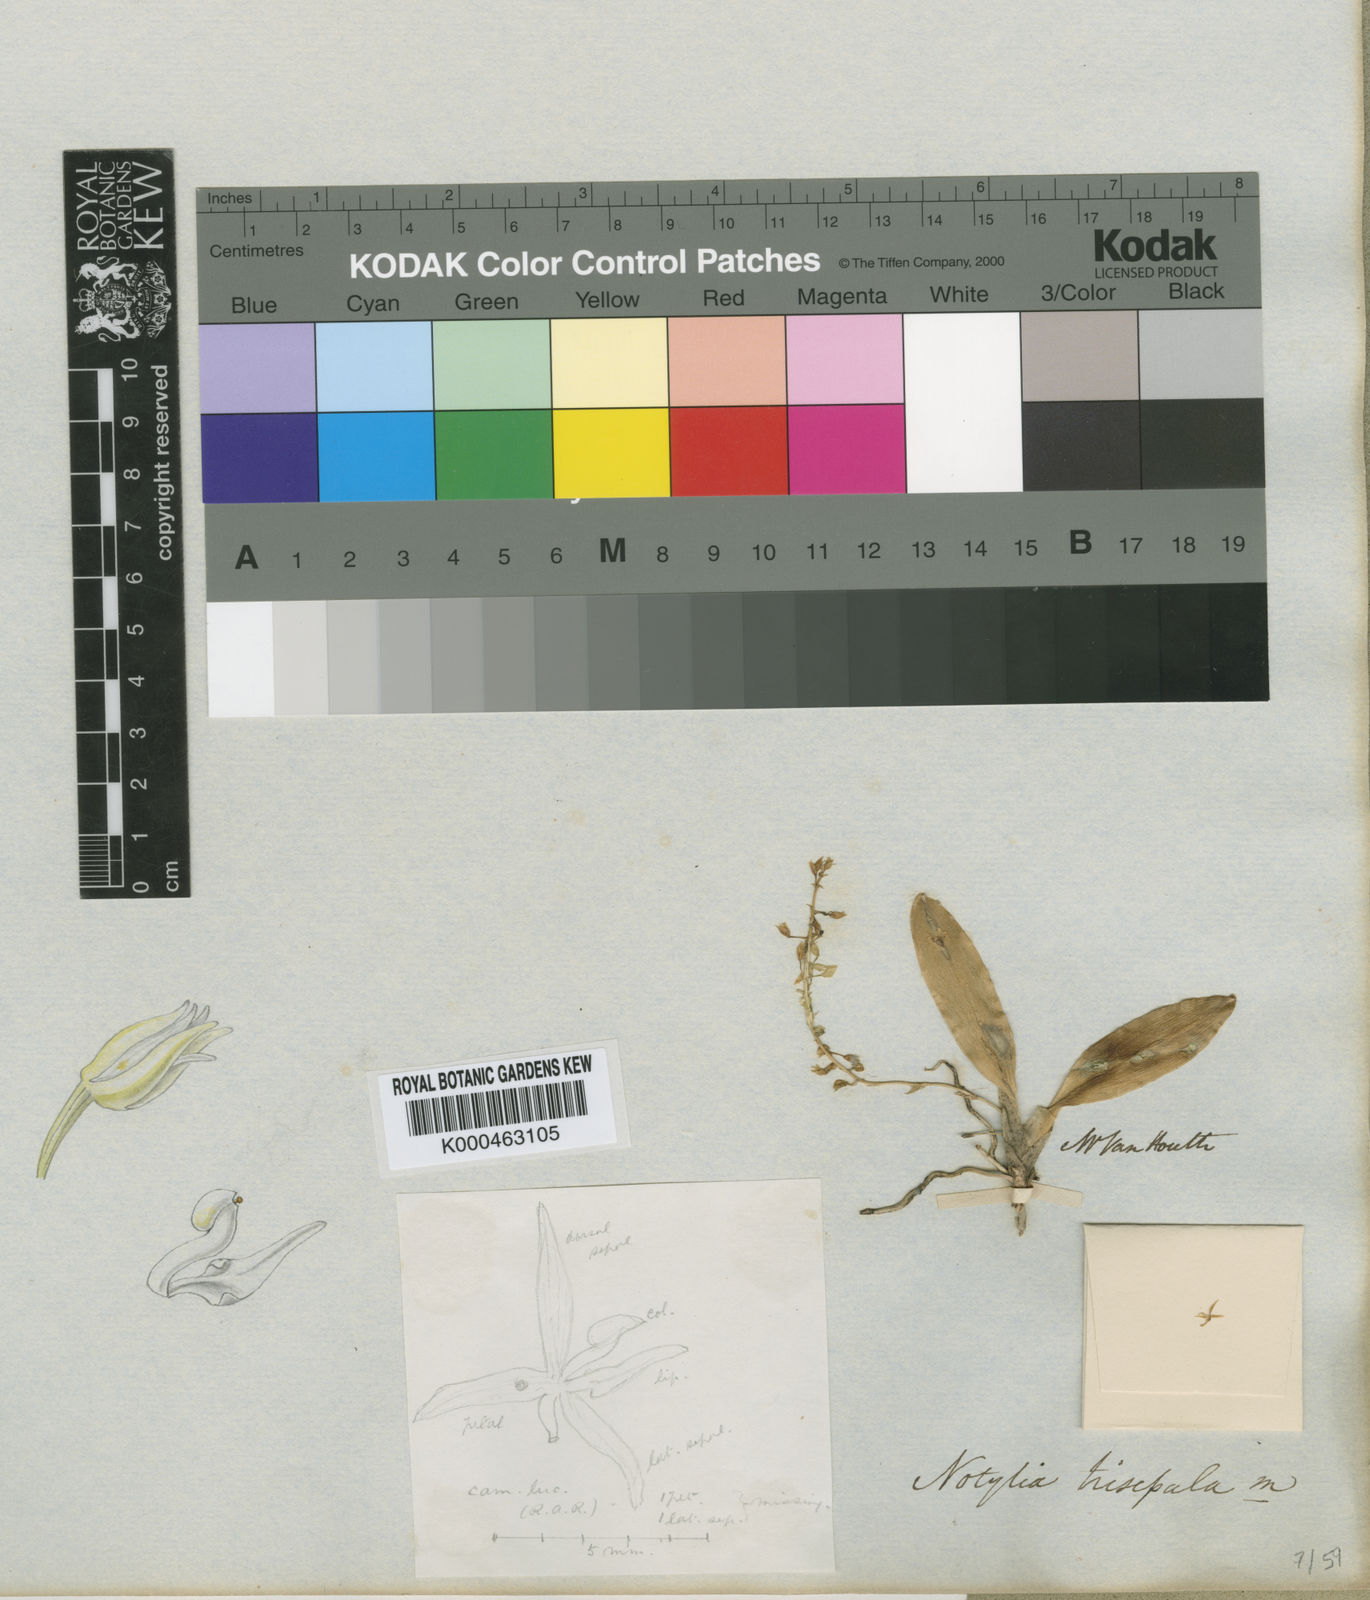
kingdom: Plantae
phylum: Tracheophyta
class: Liliopsida
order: Asparagales
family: Orchidaceae
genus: Notylia
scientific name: Notylia trisepala
